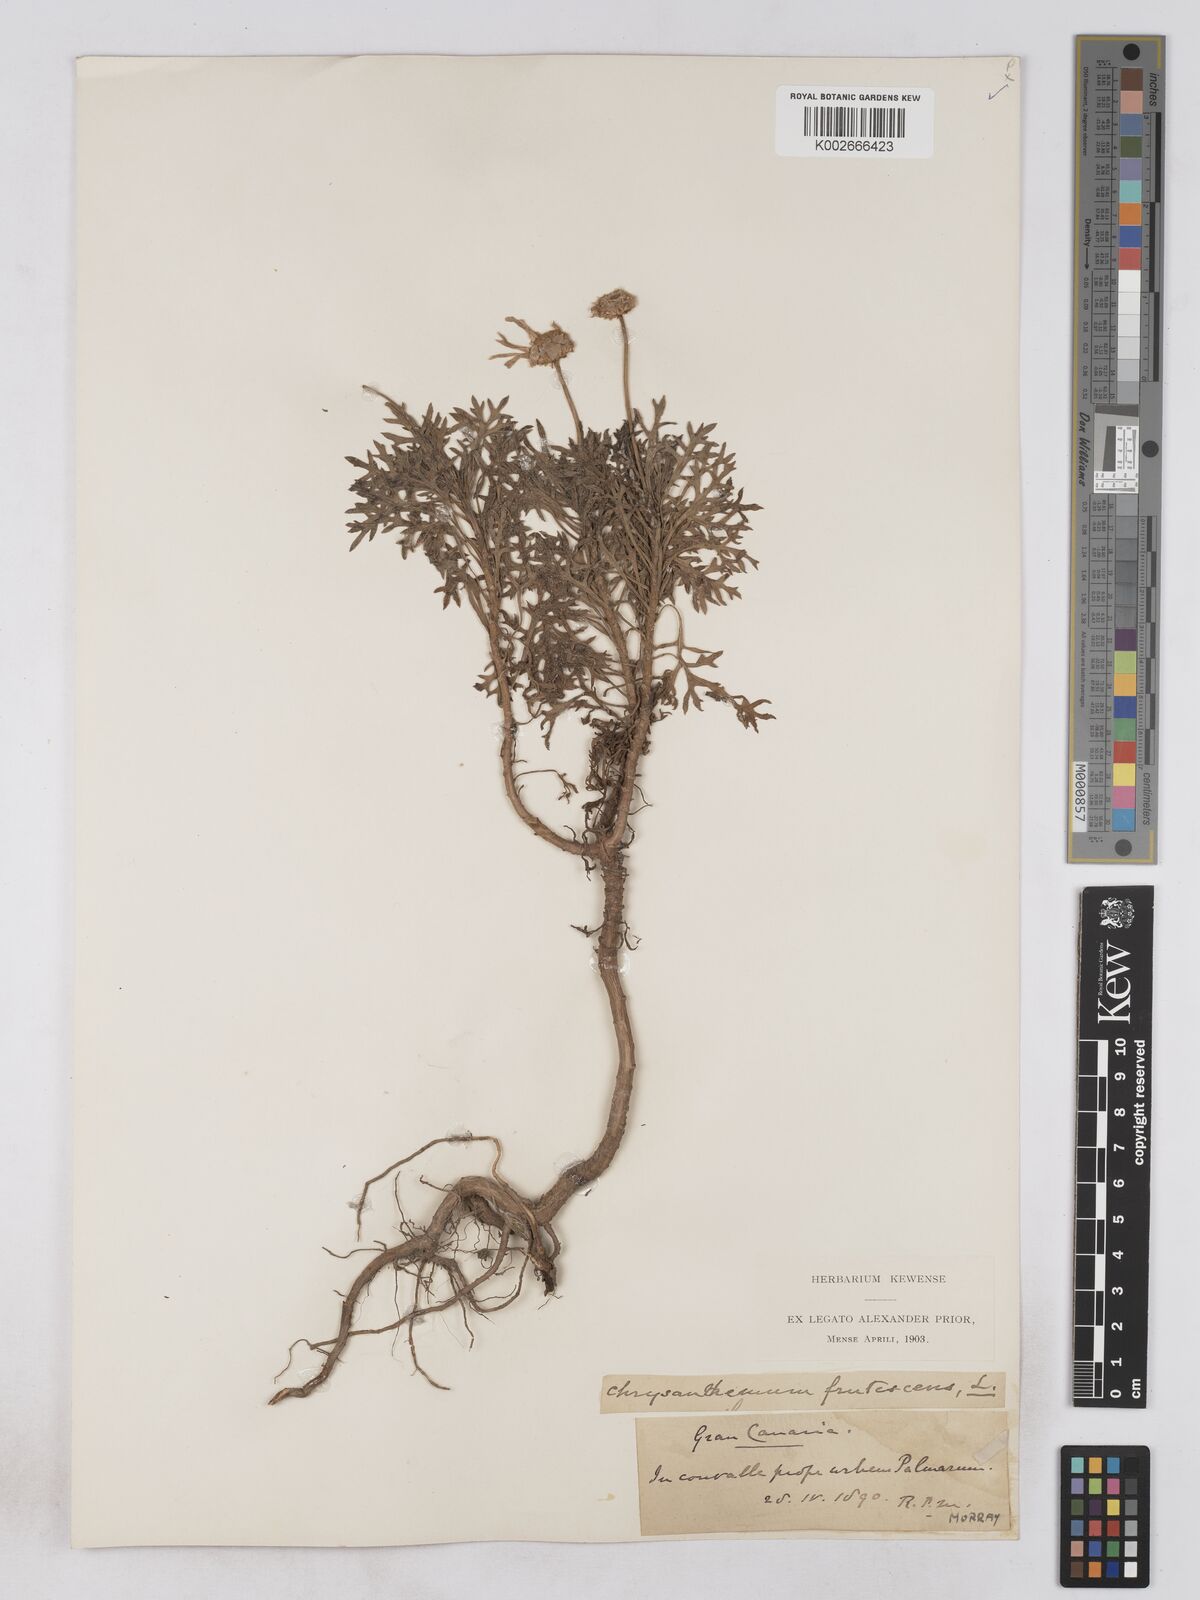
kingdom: Plantae
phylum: Tracheophyta
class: Magnoliopsida
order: Asterales
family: Asteraceae
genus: Argyranthemum
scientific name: Argyranthemum frutescens
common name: Paris daisy
